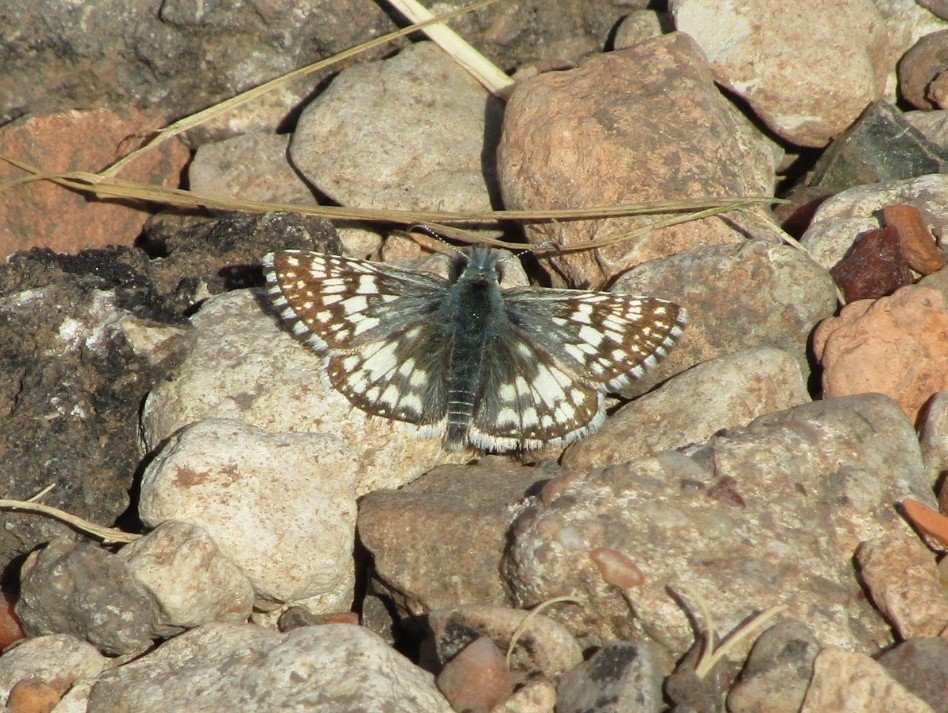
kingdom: Animalia
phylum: Arthropoda
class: Insecta
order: Lepidoptera
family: Hesperiidae
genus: Pyrgus
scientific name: Pyrgus communis
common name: Common Checkered-Skipper
